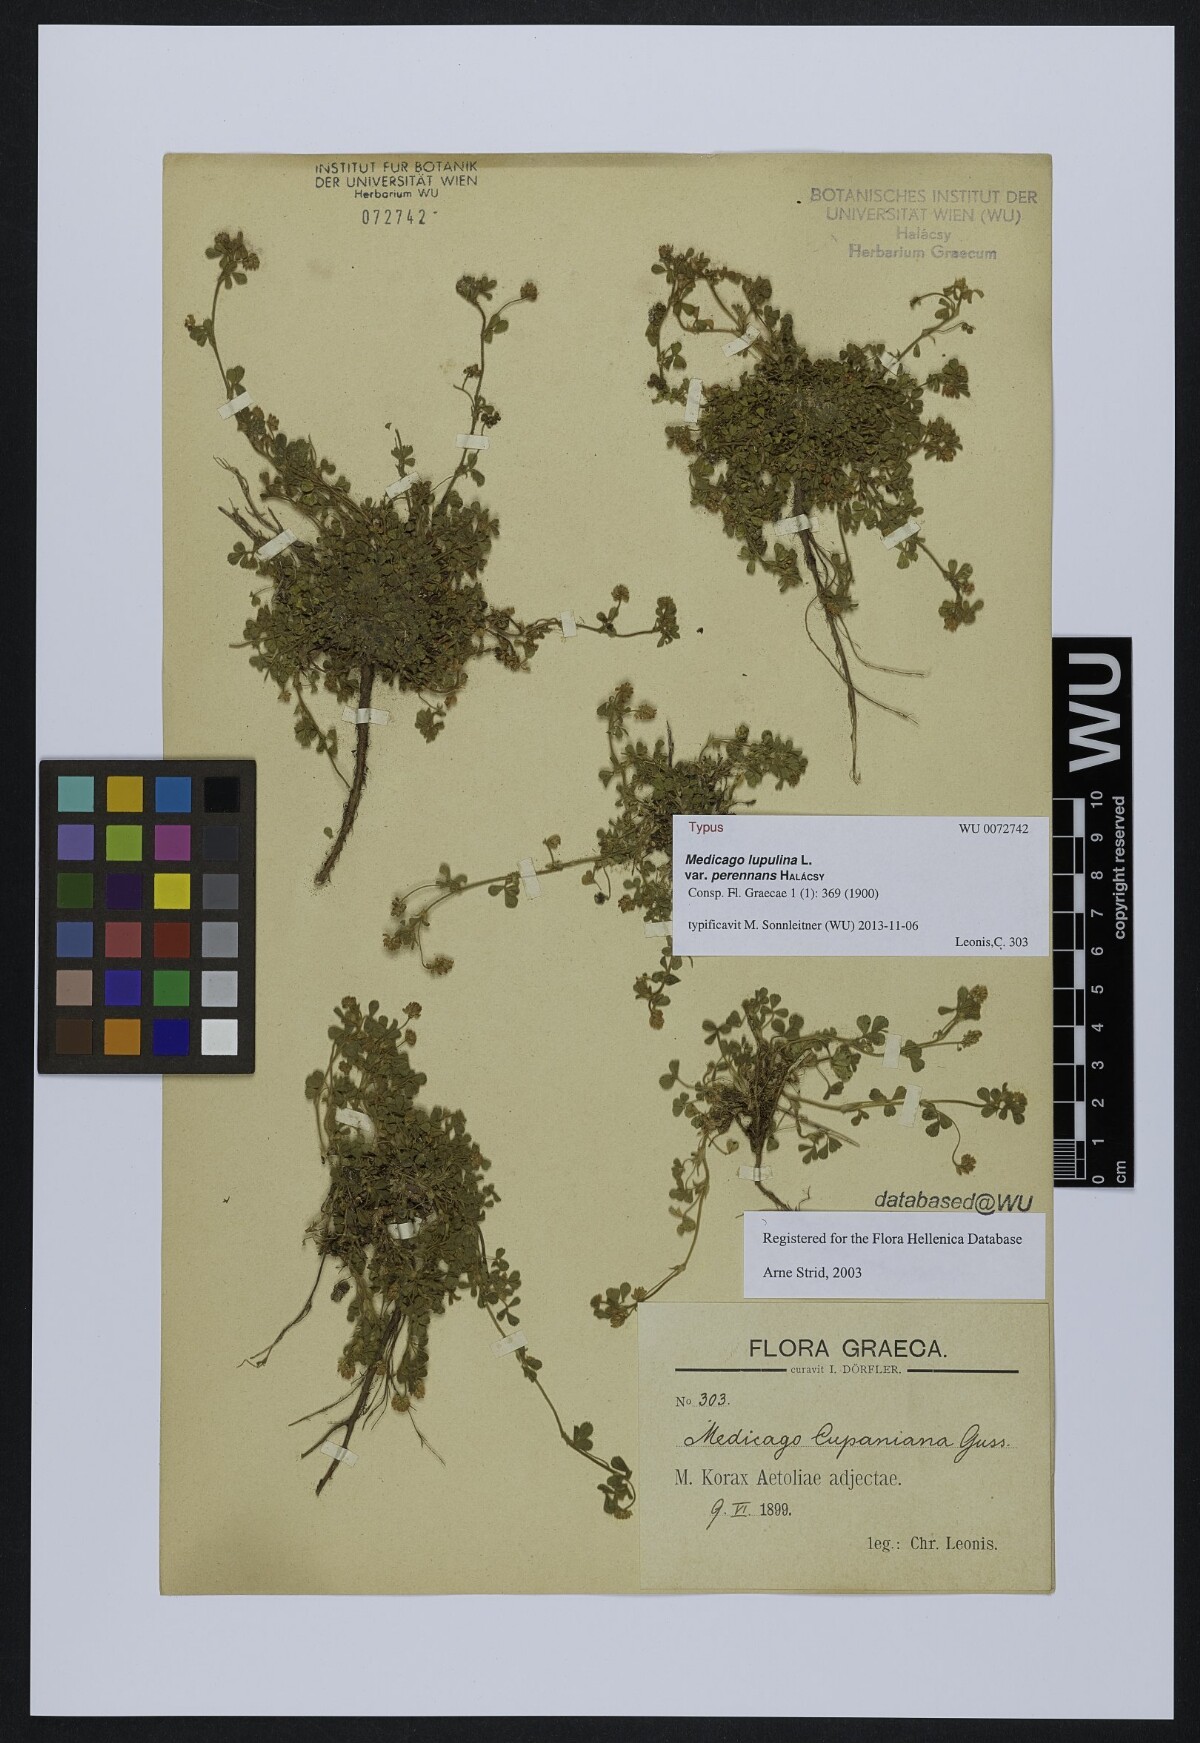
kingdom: Plantae
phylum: Tracheophyta
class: Magnoliopsida
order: Fabales
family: Fabaceae
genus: Medicago
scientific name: Medicago lupulina
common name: Black medick
